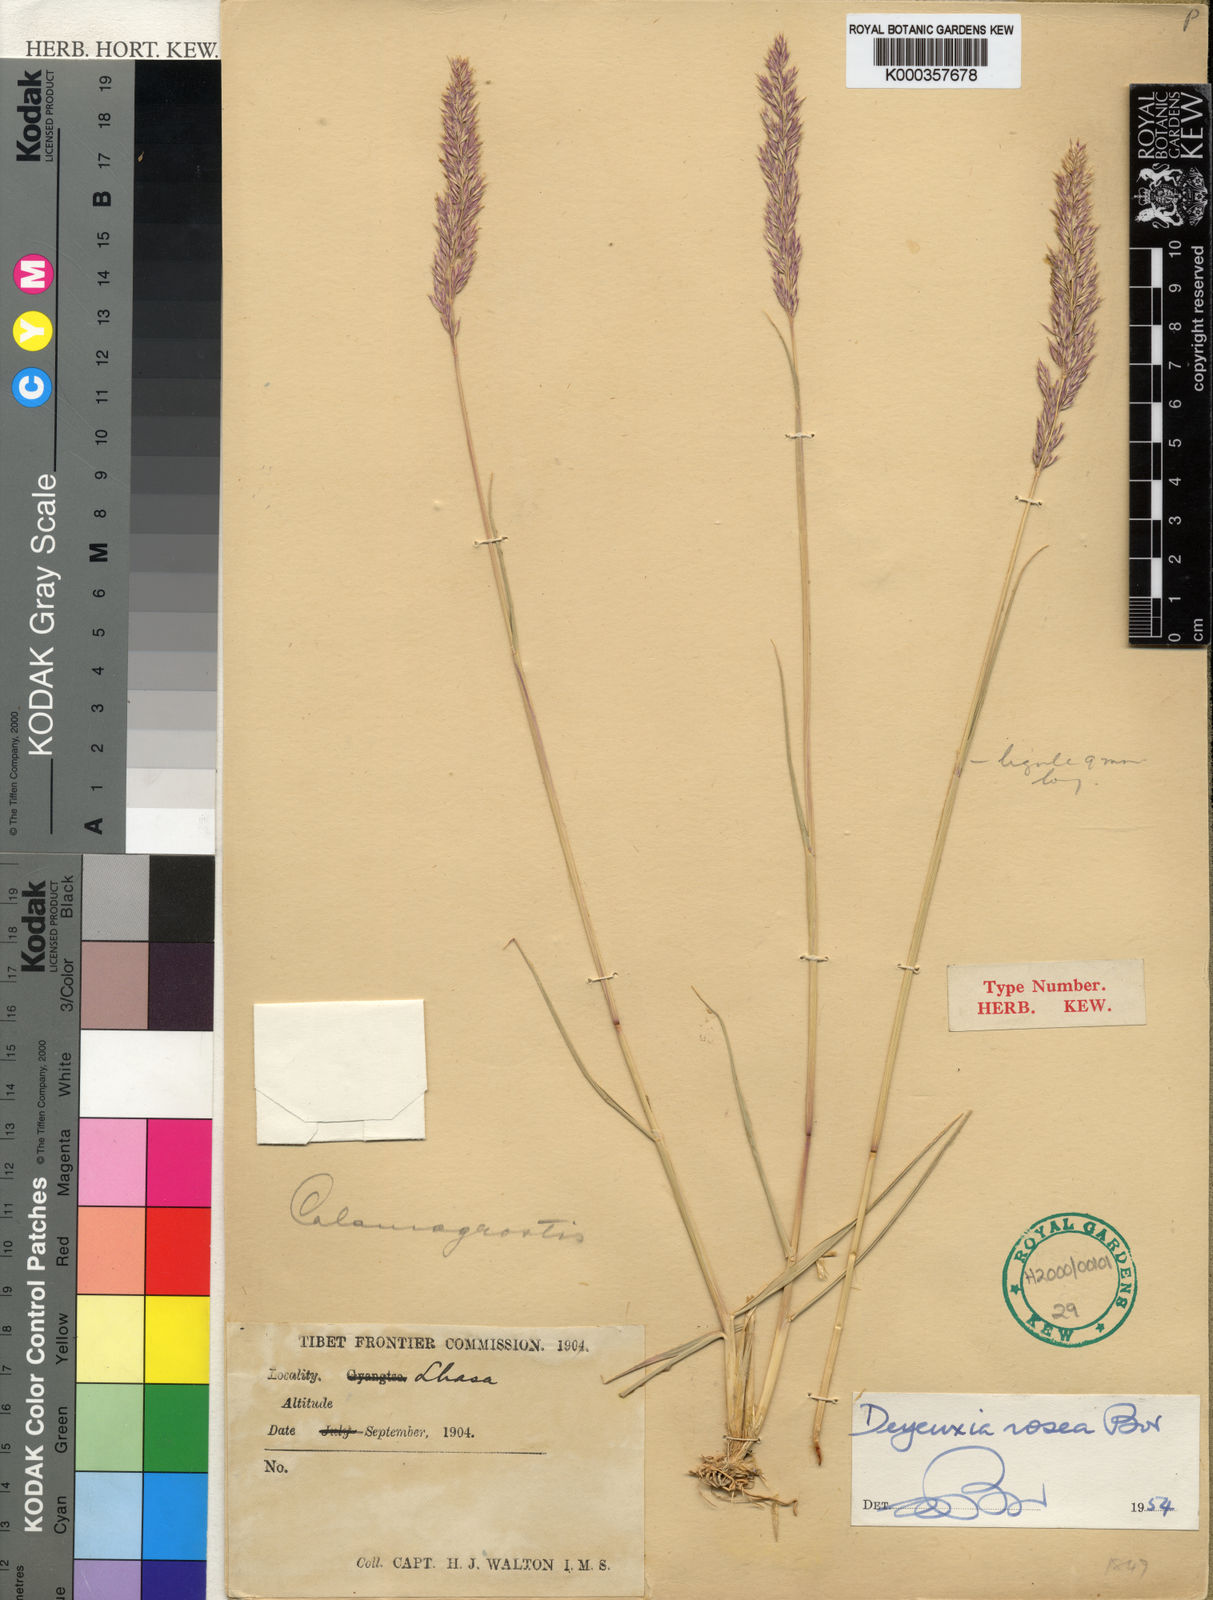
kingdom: Plantae
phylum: Tracheophyta
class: Liliopsida
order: Poales
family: Poaceae
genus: Calamagrostis
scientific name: Calamagrostis borii
